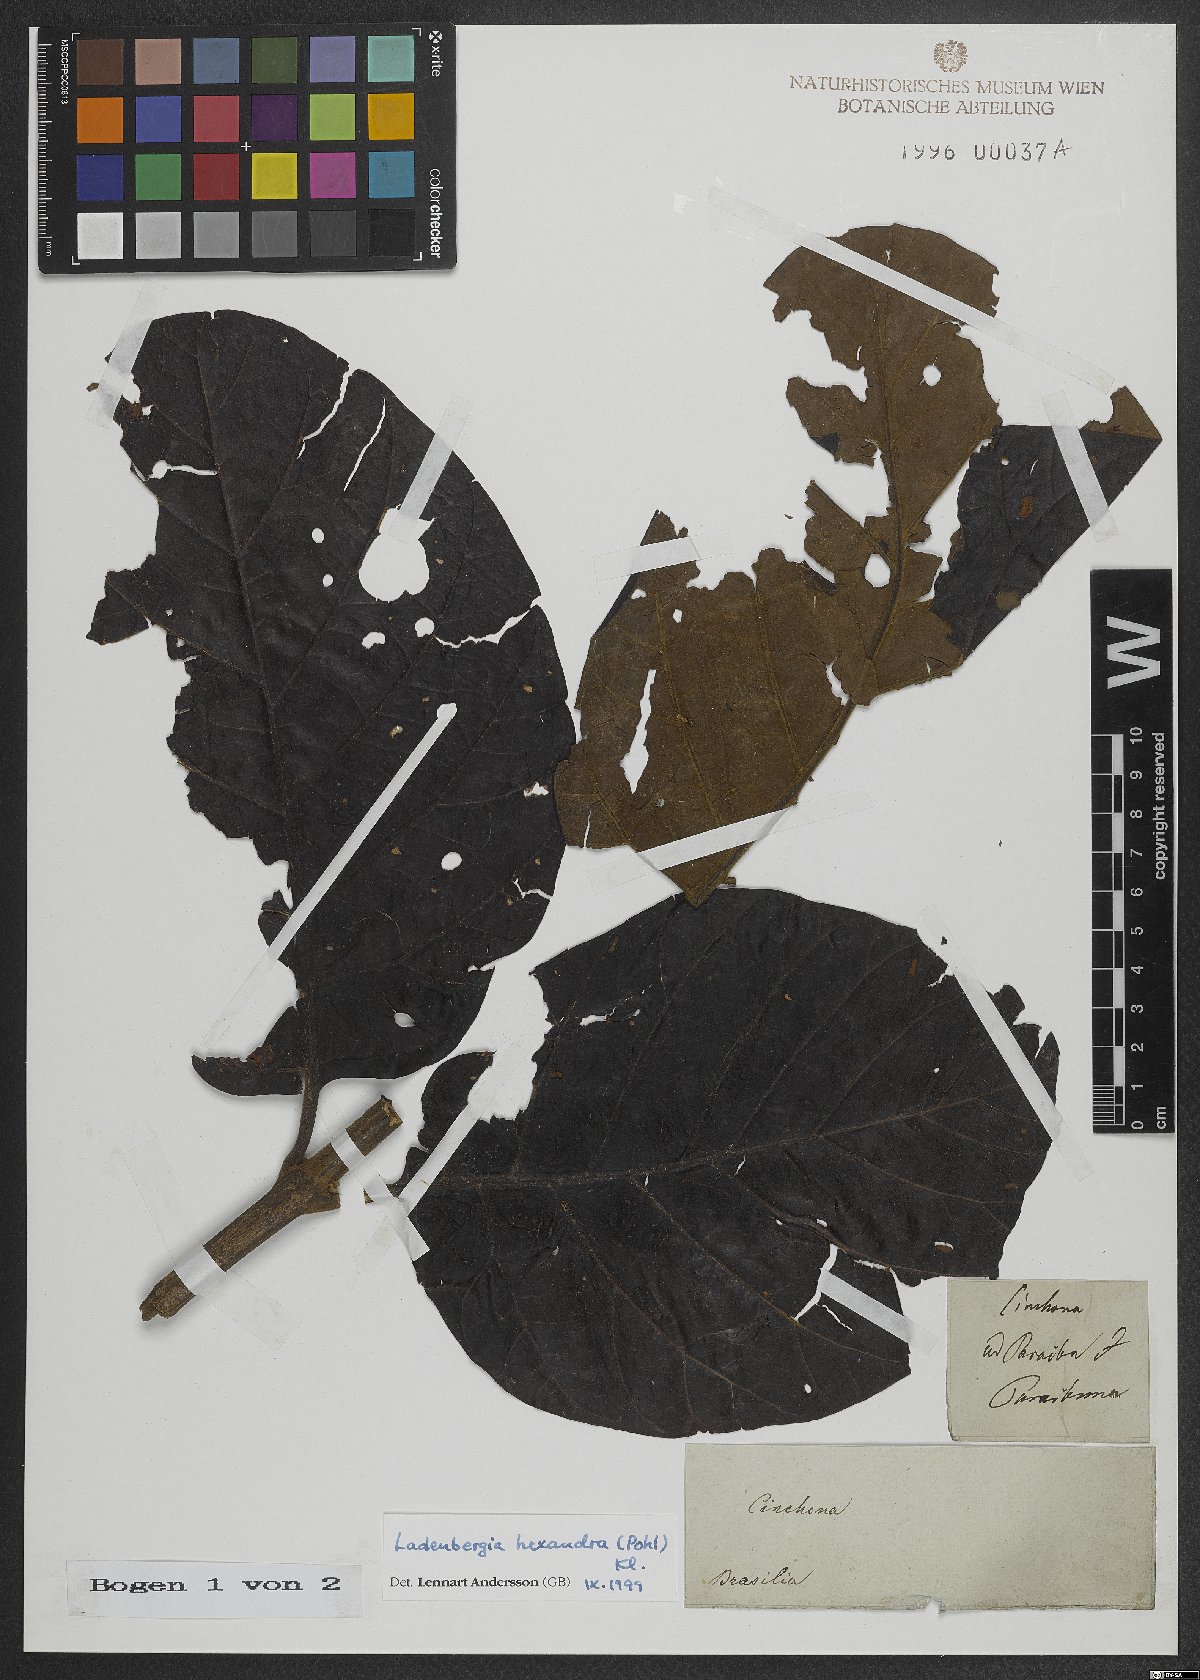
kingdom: Plantae
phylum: Tracheophyta
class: Magnoliopsida
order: Gentianales
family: Rubiaceae
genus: Ladenbergia
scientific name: Ladenbergia hexandra
